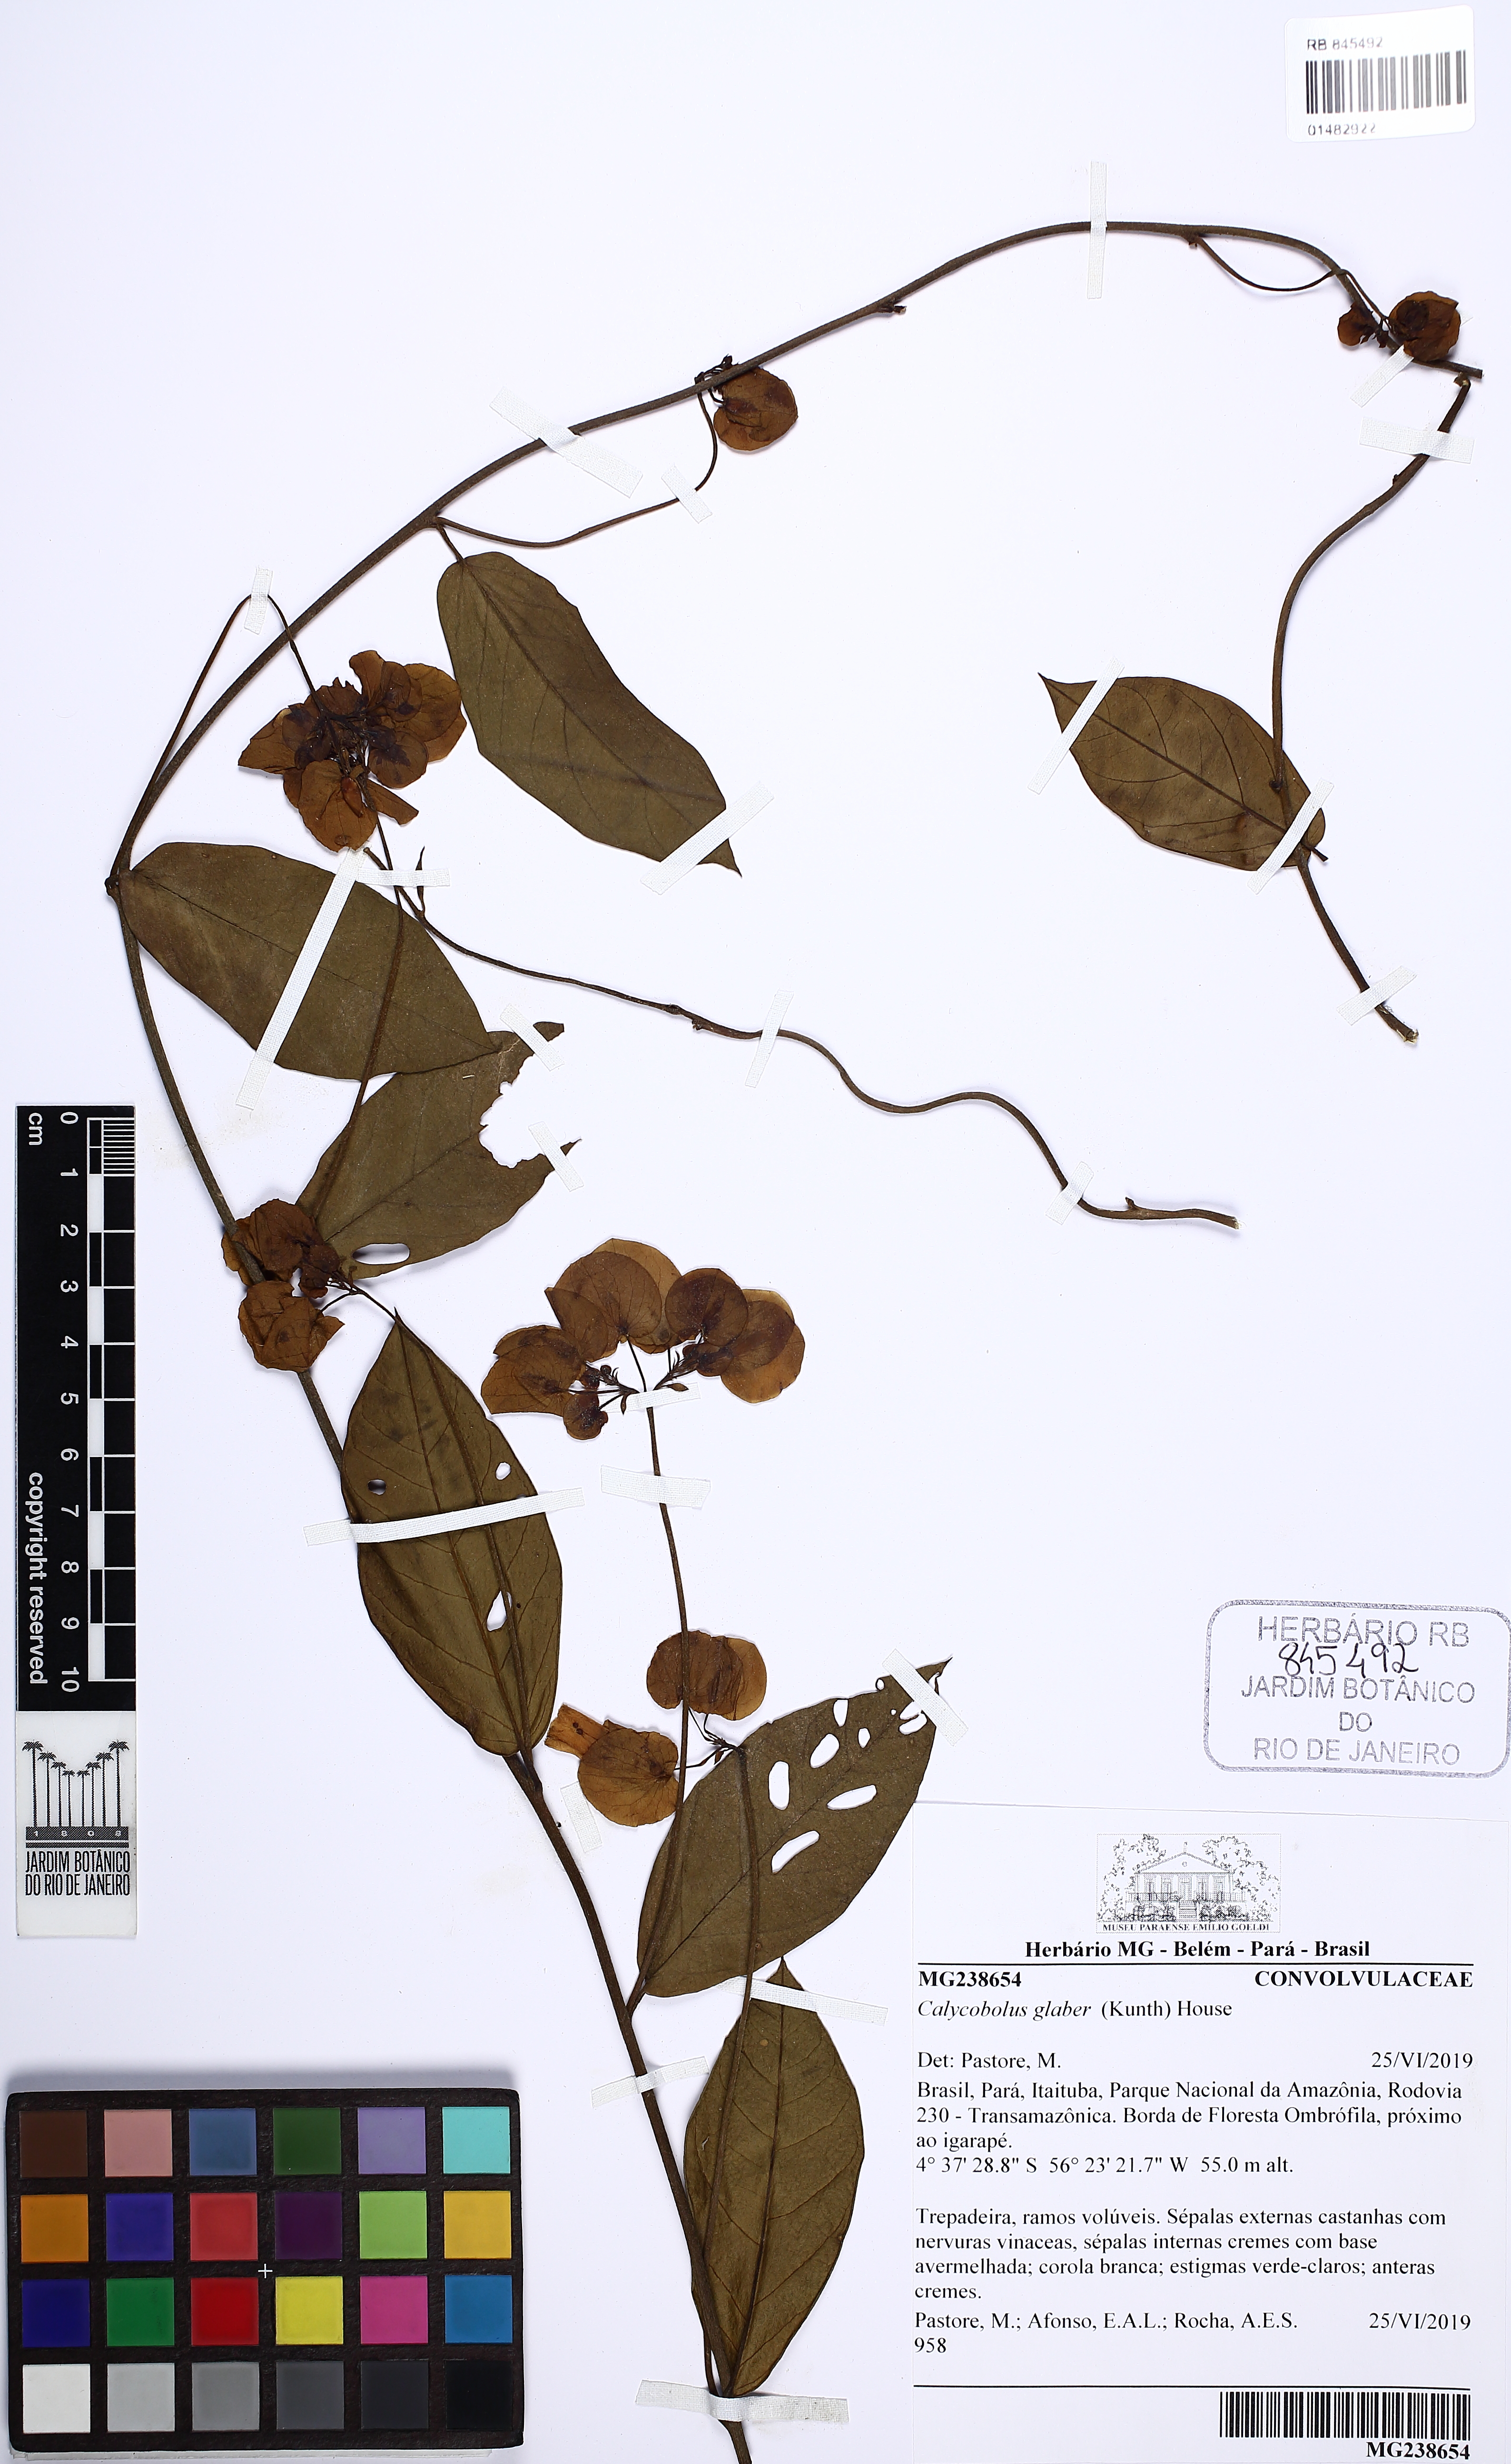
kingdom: Plantae
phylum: Tracheophyta
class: Magnoliopsida
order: Solanales
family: Convolvulaceae
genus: Calycobolus
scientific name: Calycobolus glaber
